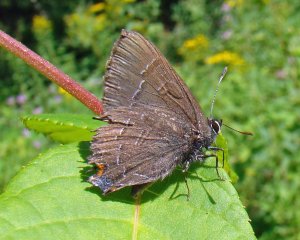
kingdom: Animalia
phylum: Arthropoda
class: Insecta
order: Lepidoptera
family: Lycaenidae
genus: Satyrium
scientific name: Satyrium calanus
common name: Banded Hairstreak
